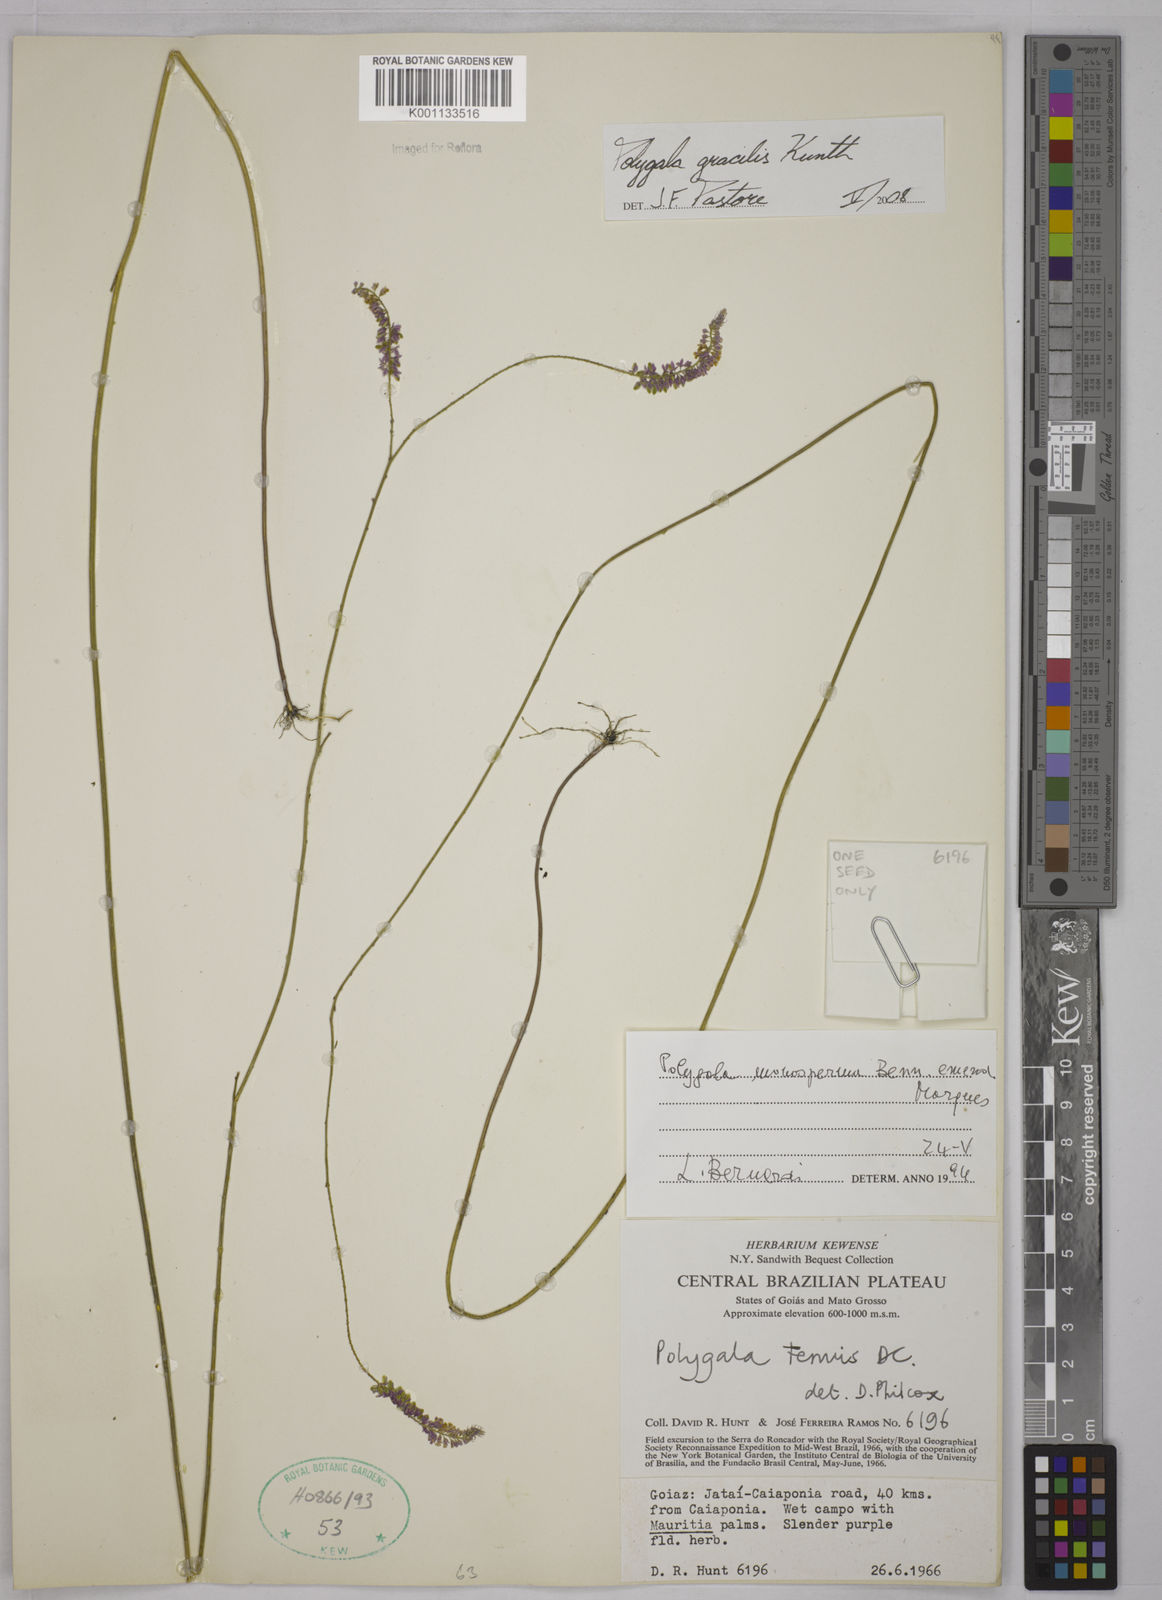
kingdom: Plantae
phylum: Tracheophyta
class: Magnoliopsida
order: Fabales
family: Polygalaceae
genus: Polygala
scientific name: Polygala gracilis
